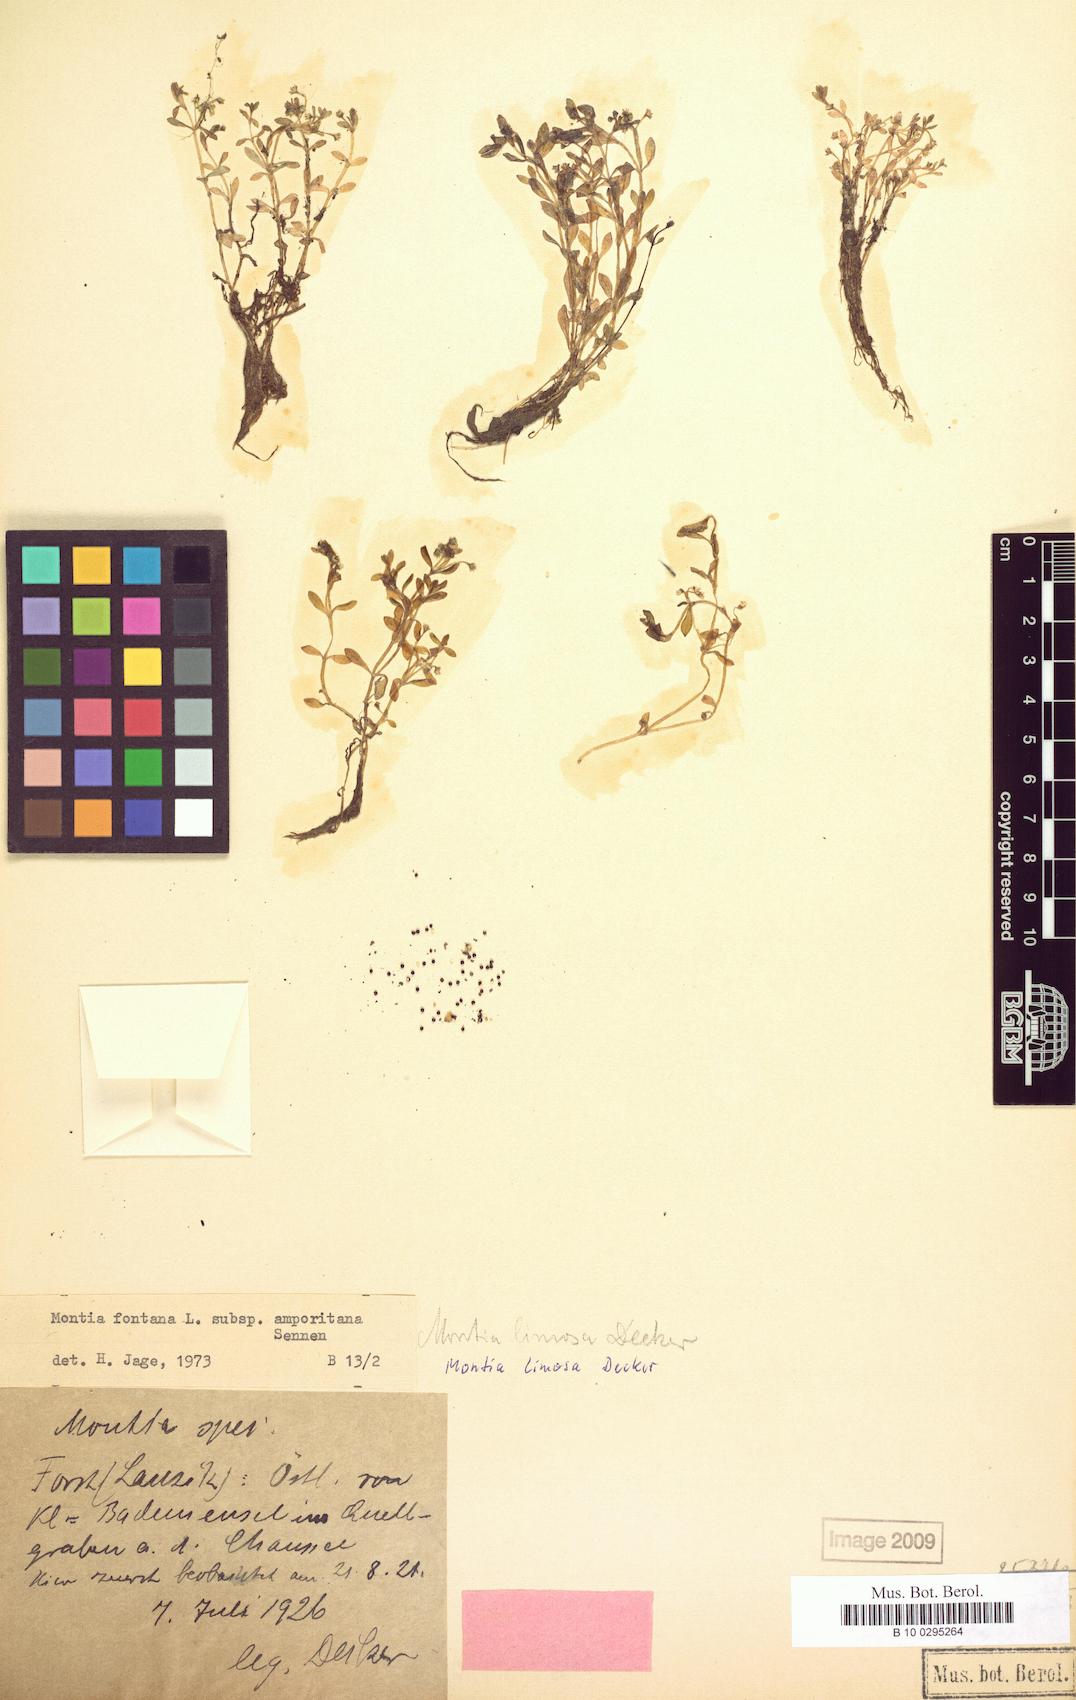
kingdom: Plantae
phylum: Tracheophyta
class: Magnoliopsida
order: Caryophyllales
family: Montiaceae
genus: Montia
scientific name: Montia fontana
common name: Blinks
